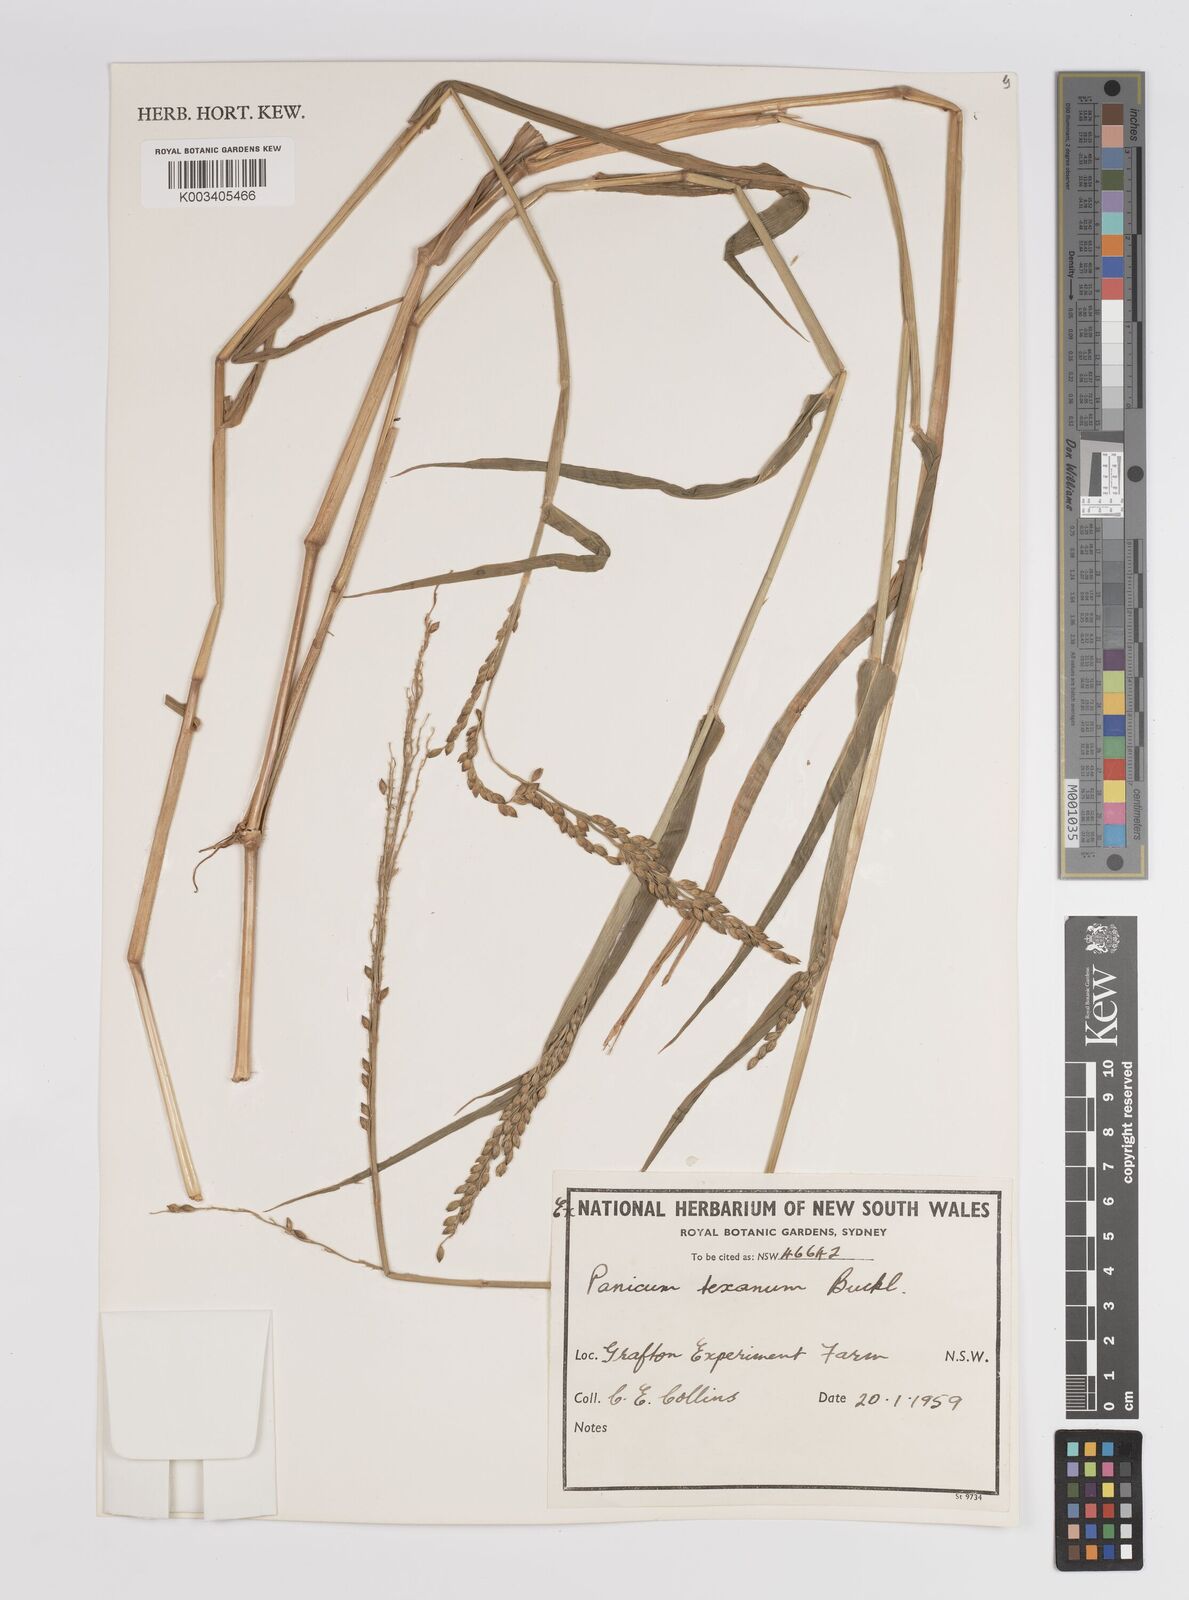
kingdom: Plantae
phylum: Tracheophyta
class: Liliopsida
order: Poales
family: Poaceae
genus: Urochloa
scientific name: Urochloa texana
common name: Texas millet
